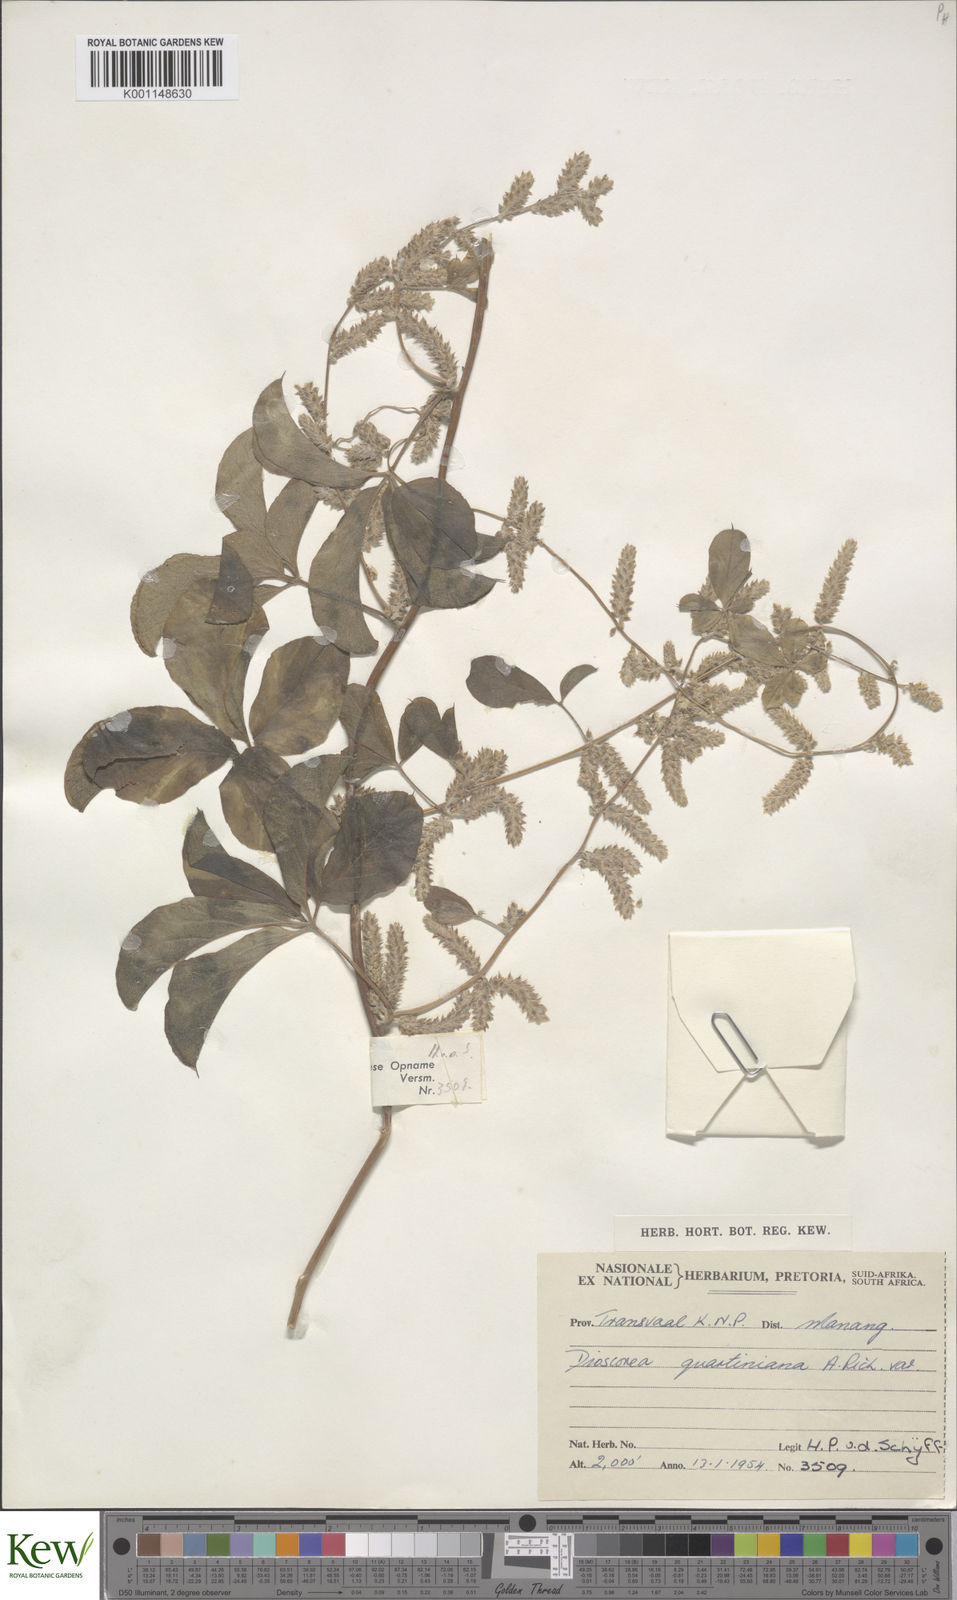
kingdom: Plantae
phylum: Tracheophyta
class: Liliopsida
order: Dioscoreales
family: Dioscoreaceae
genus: Dioscorea
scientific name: Dioscorea quartiniana
